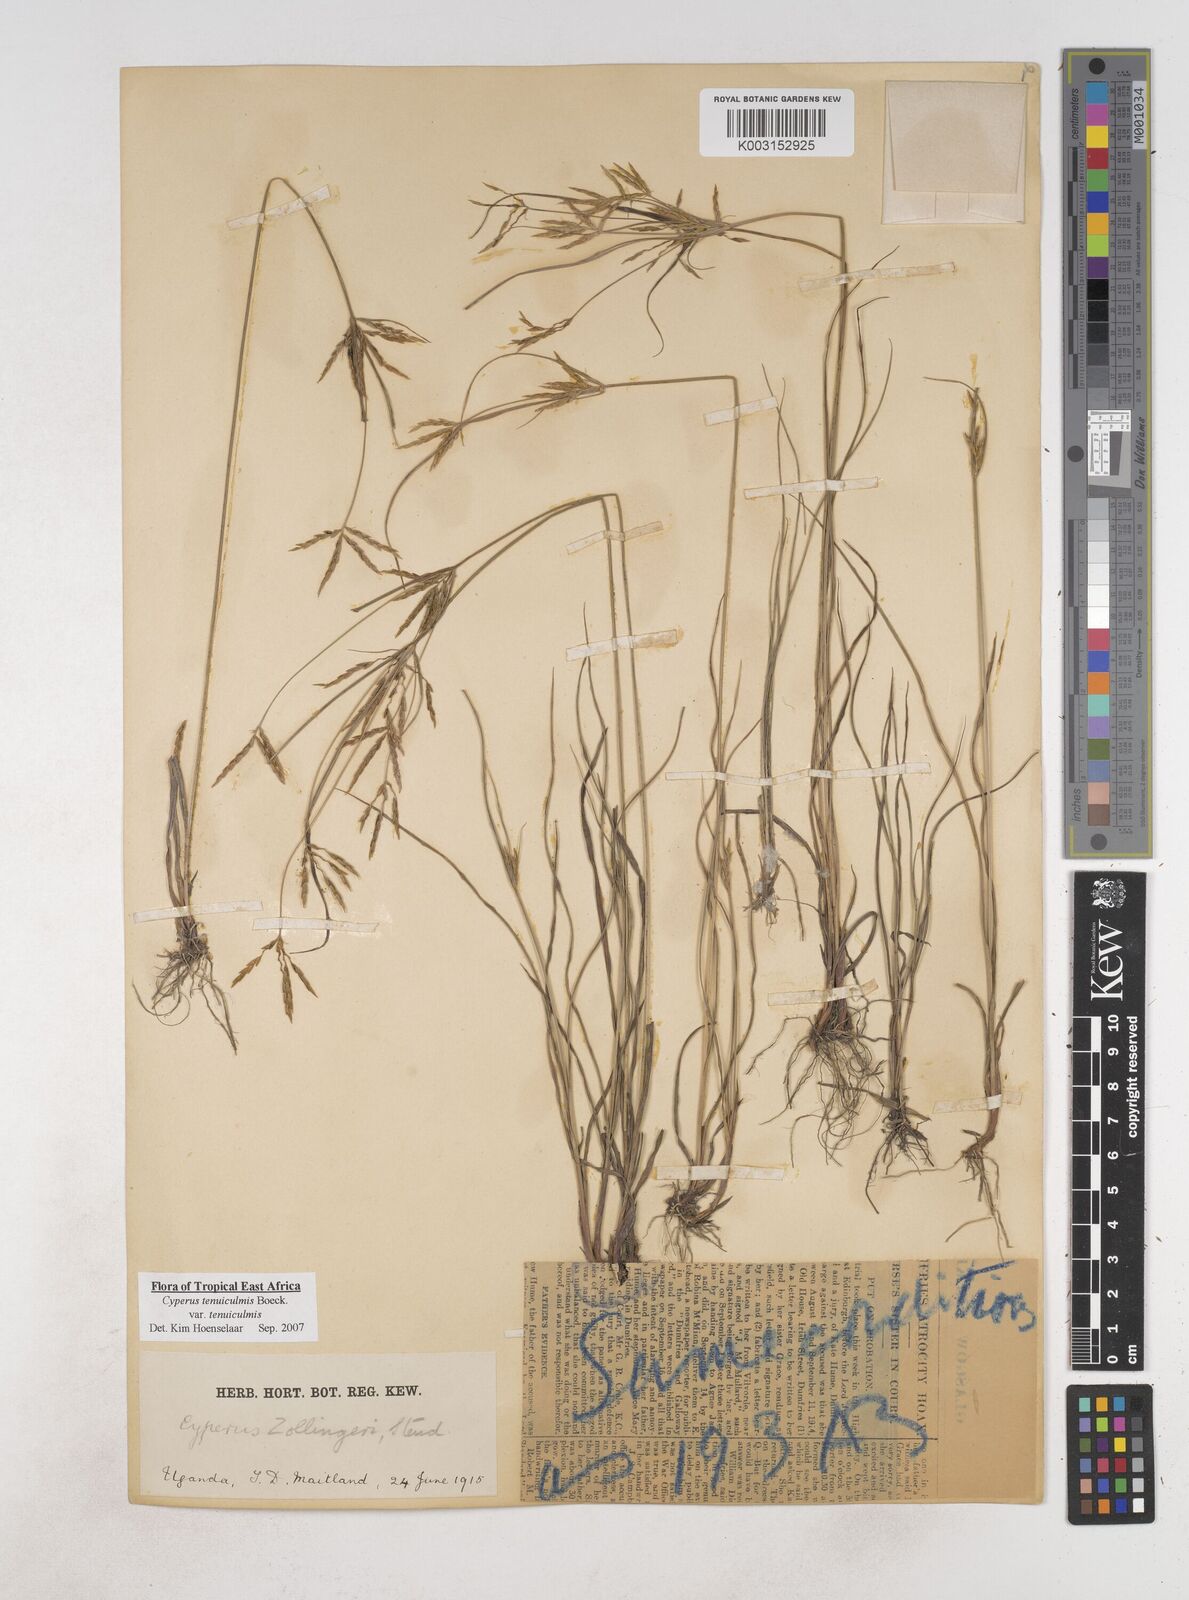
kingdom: Plantae
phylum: Tracheophyta
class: Liliopsida
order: Poales
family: Cyperaceae
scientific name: Cyperaceae
